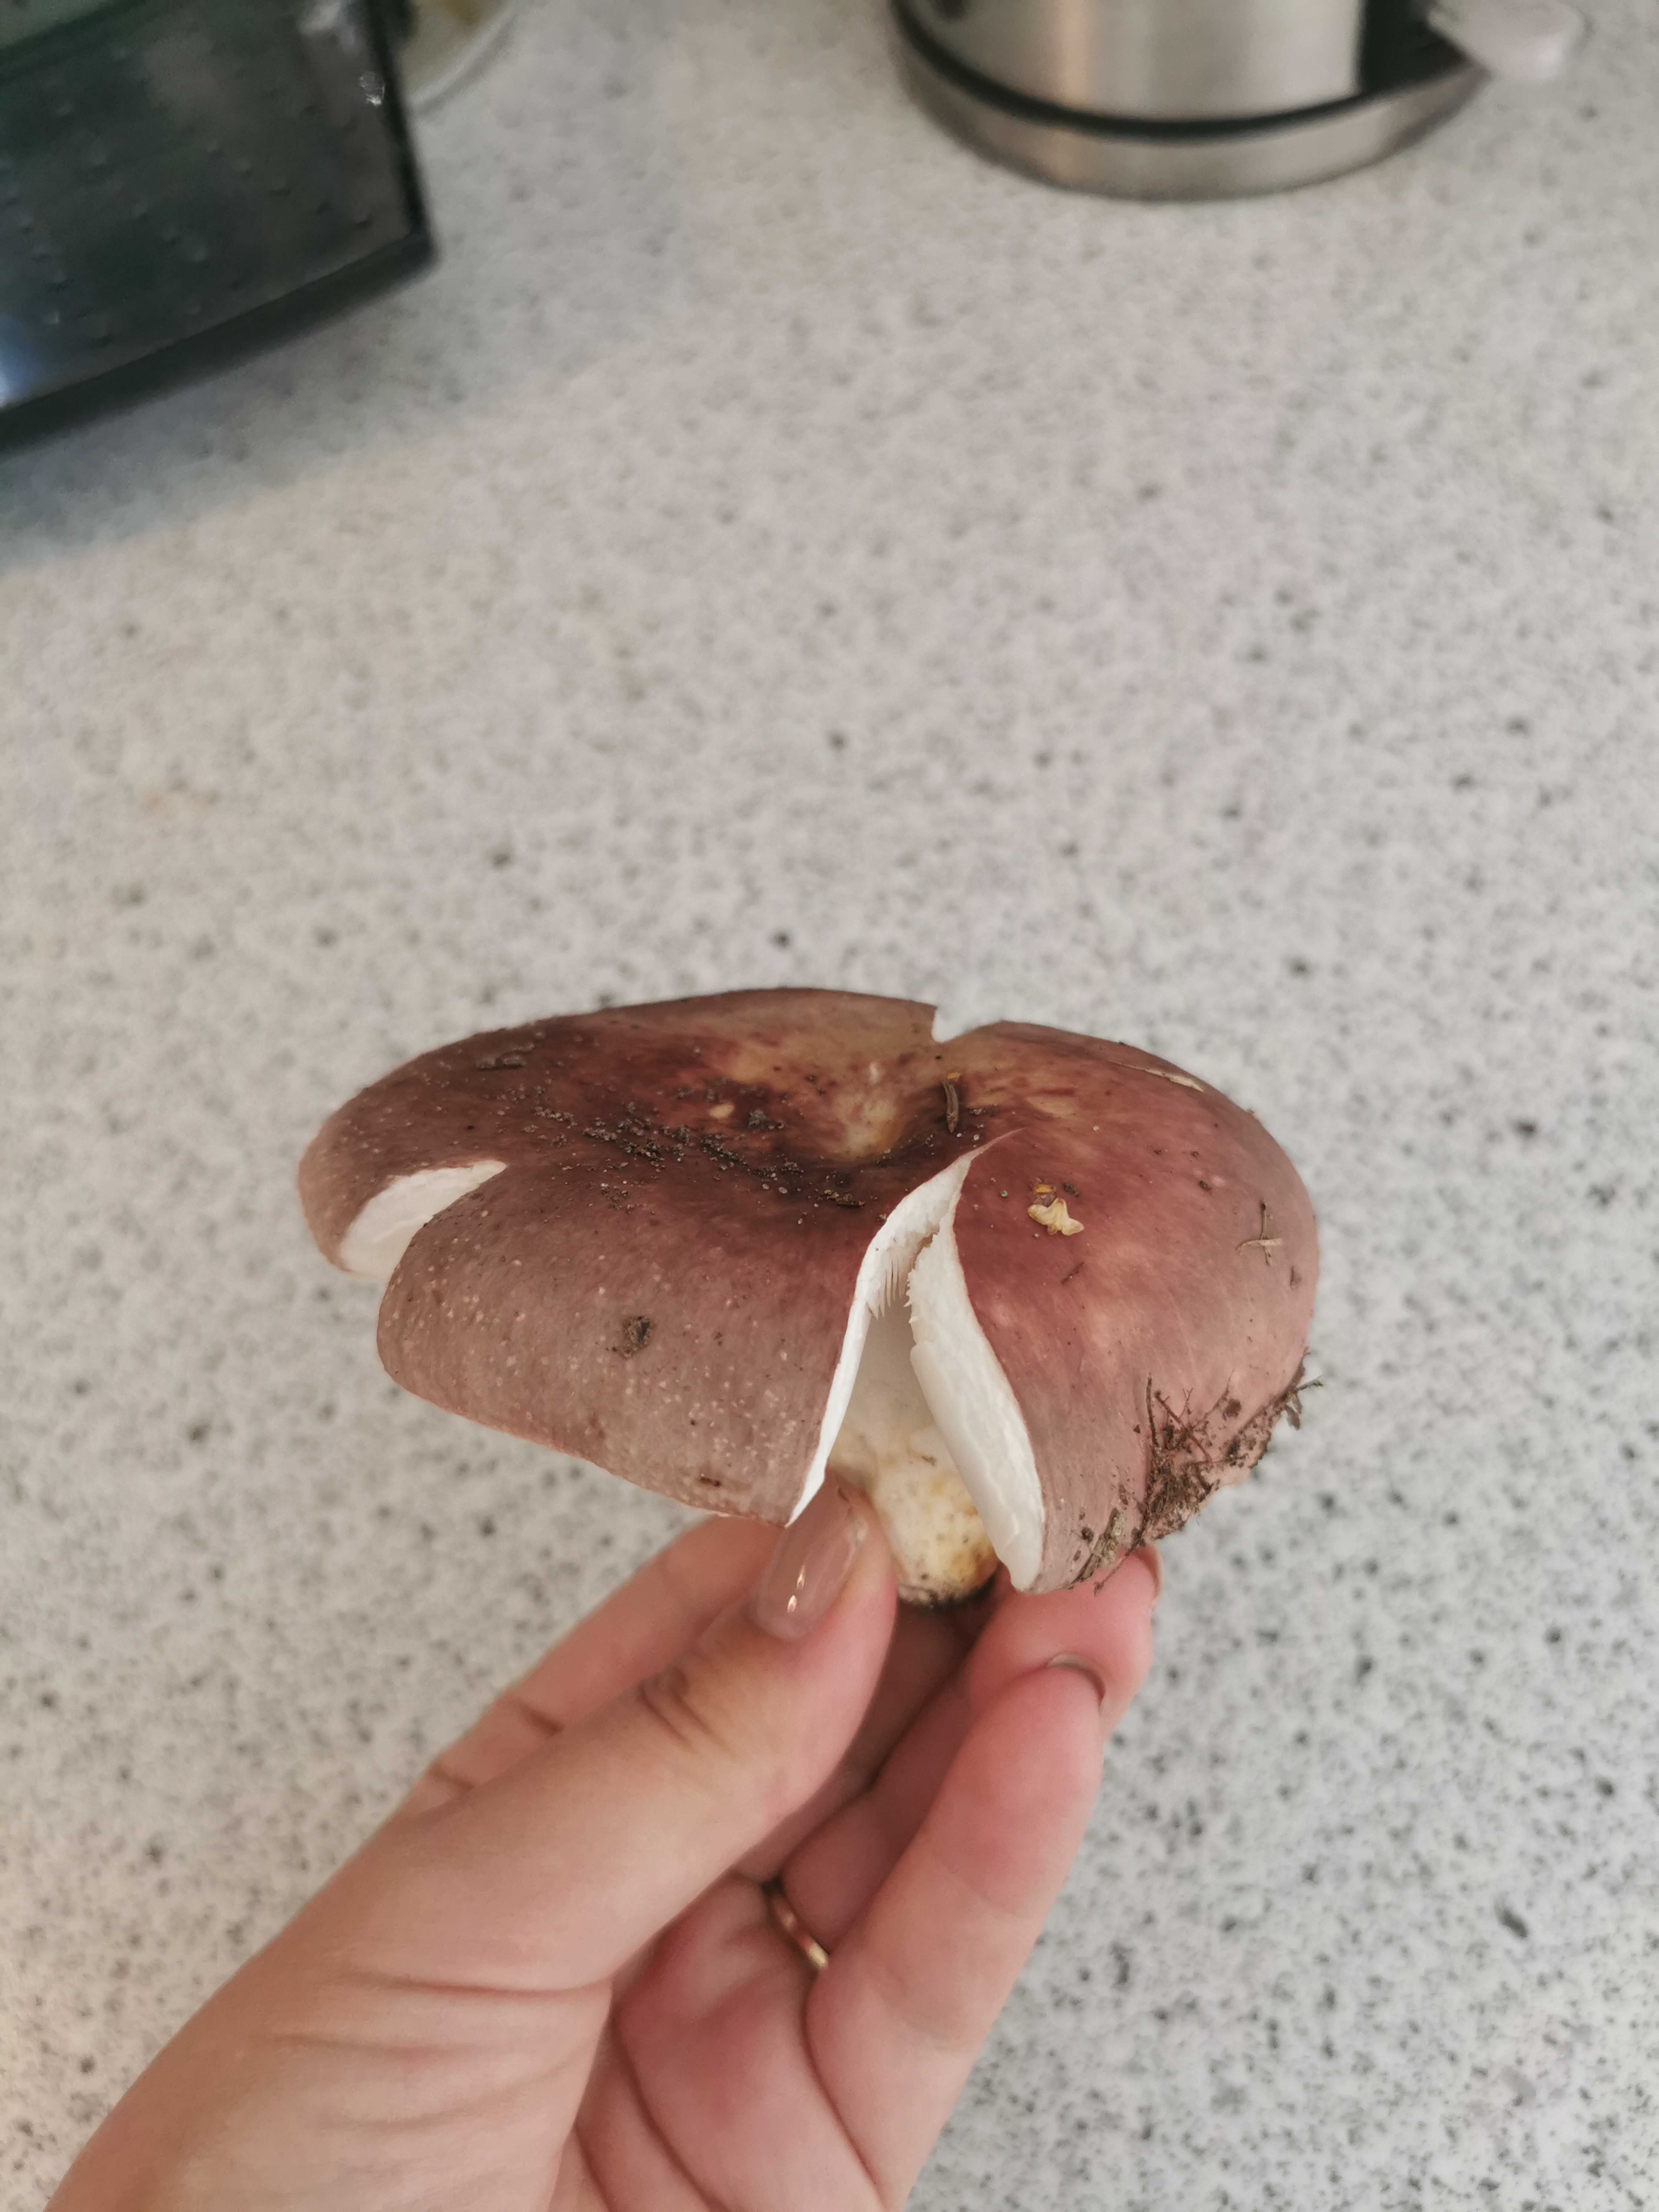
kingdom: Fungi
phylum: Basidiomycota
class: Agaricomycetes
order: Russulales
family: Russulaceae
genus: Russula
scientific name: Russula vesca
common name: spiselig skørhat
